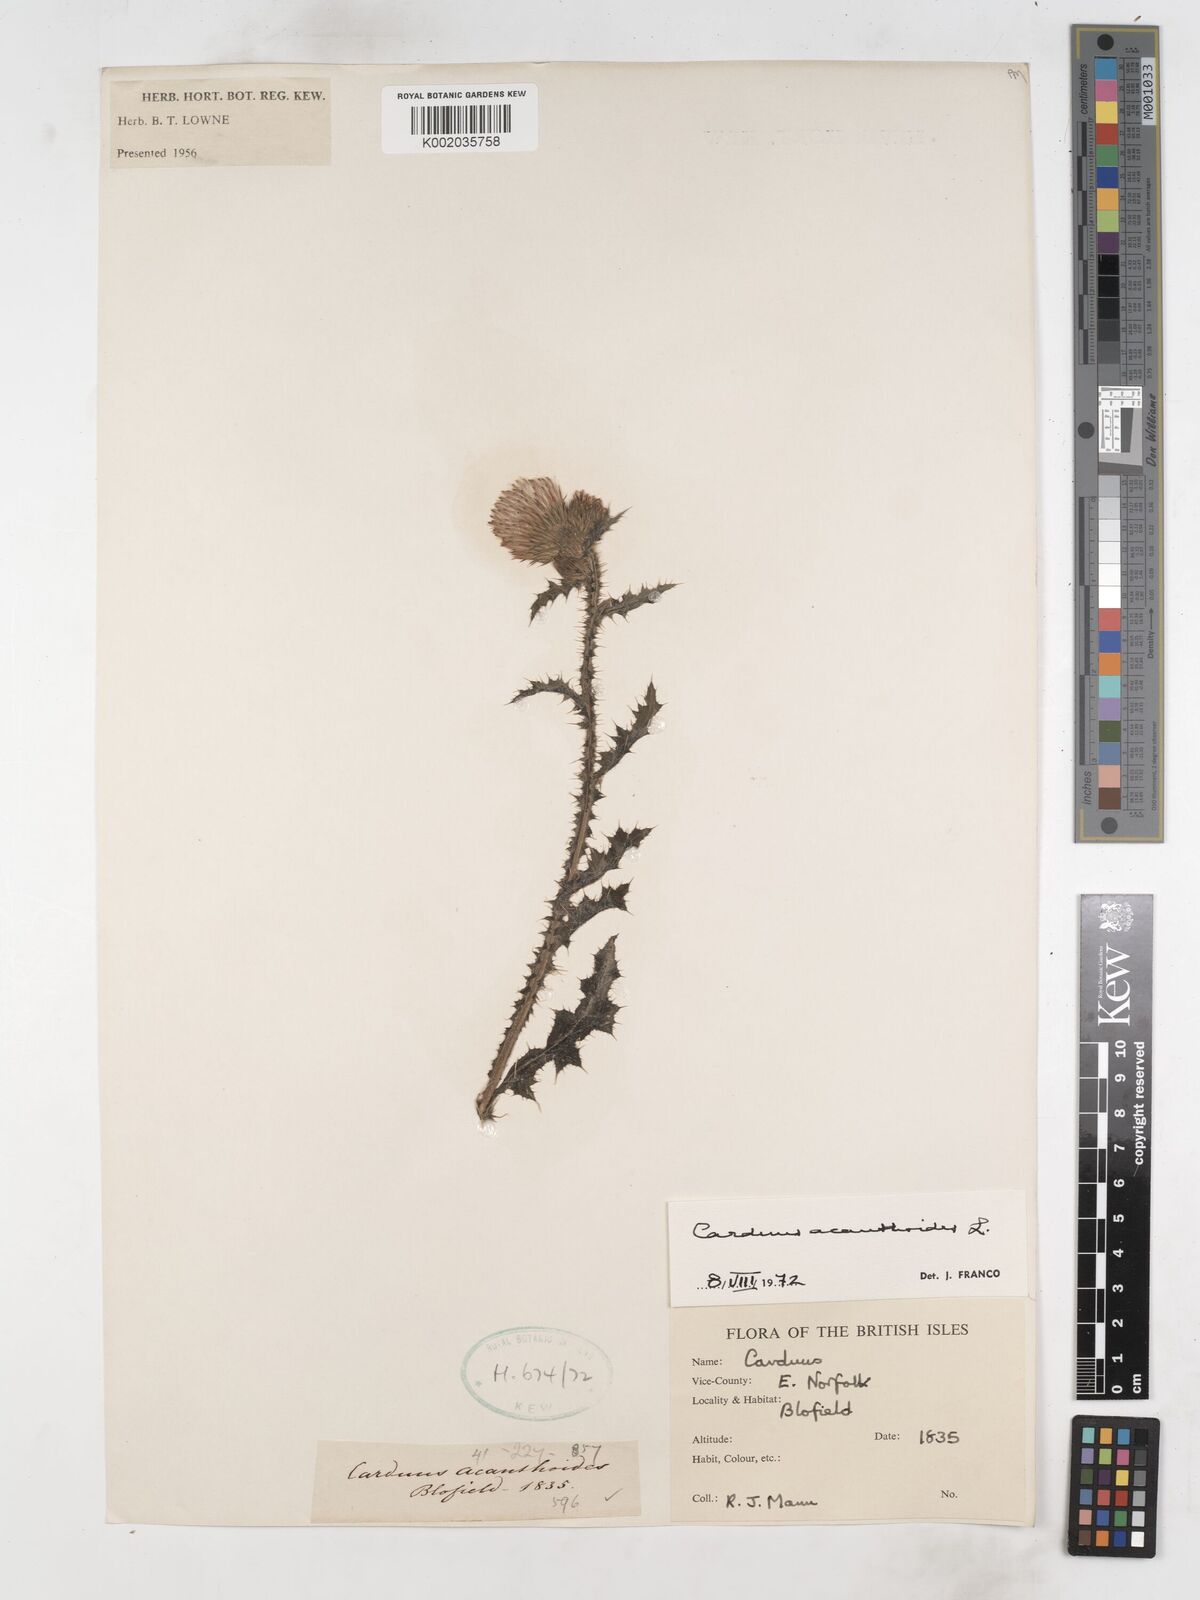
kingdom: Plantae
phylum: Tracheophyta
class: Magnoliopsida
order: Asterales
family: Asteraceae
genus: Carduus
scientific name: Carduus acanthoides
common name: Plumeless thistle
